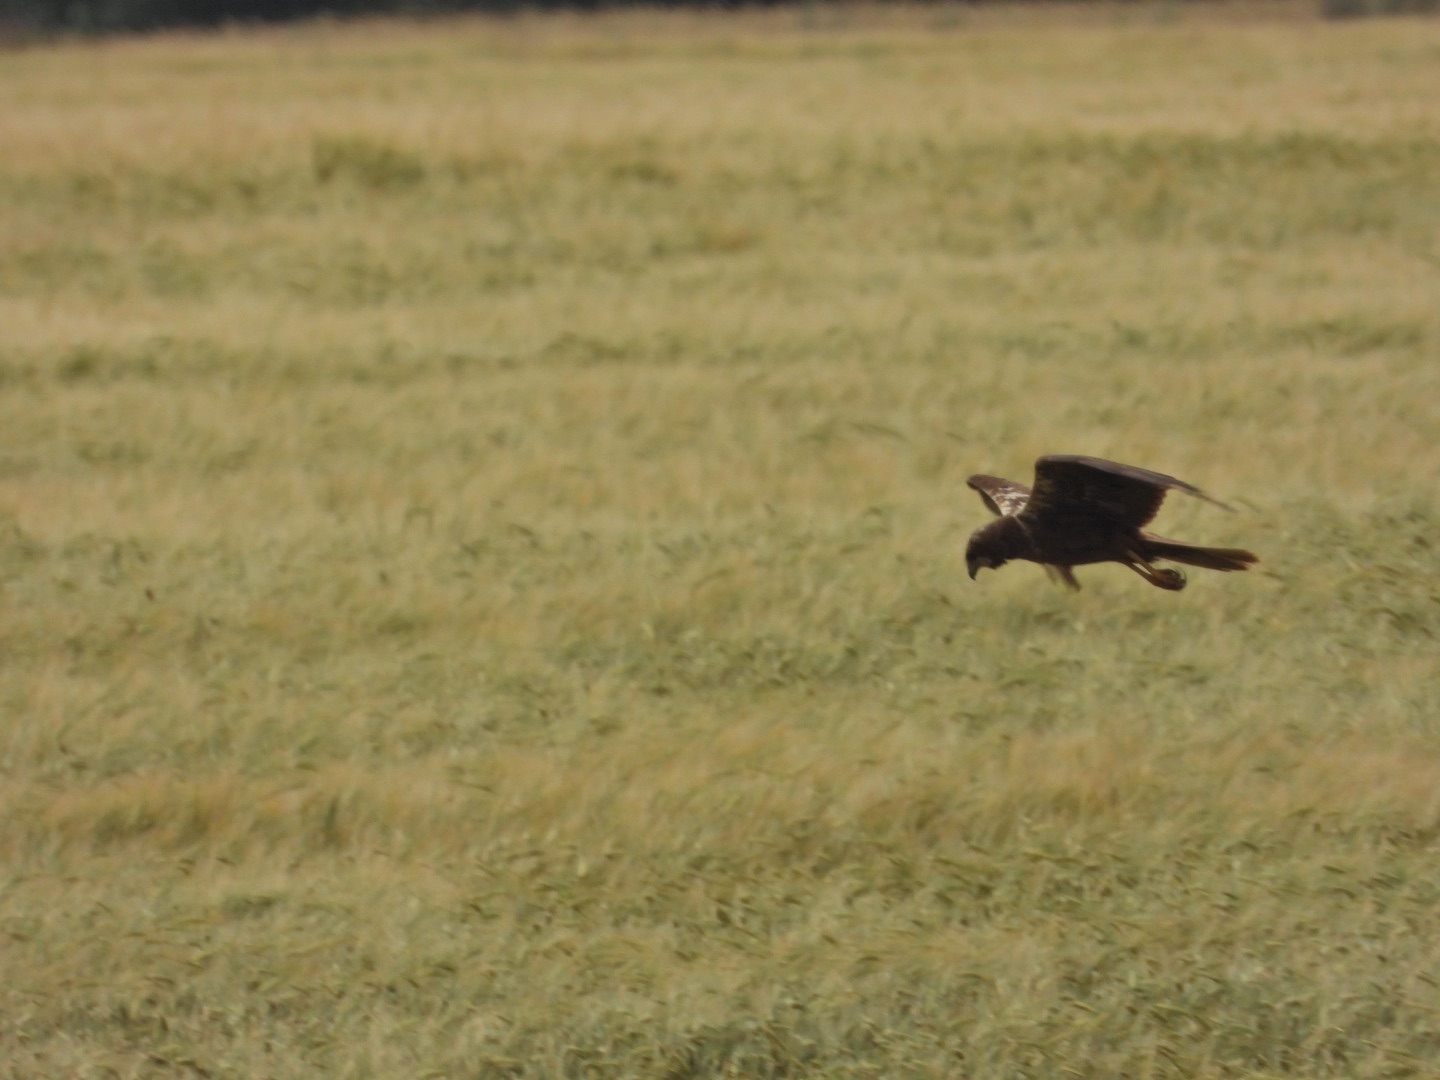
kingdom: Animalia
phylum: Chordata
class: Aves
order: Accipitriformes
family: Accipitridae
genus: Circus
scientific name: Circus aeruginosus
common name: Rørhøg
